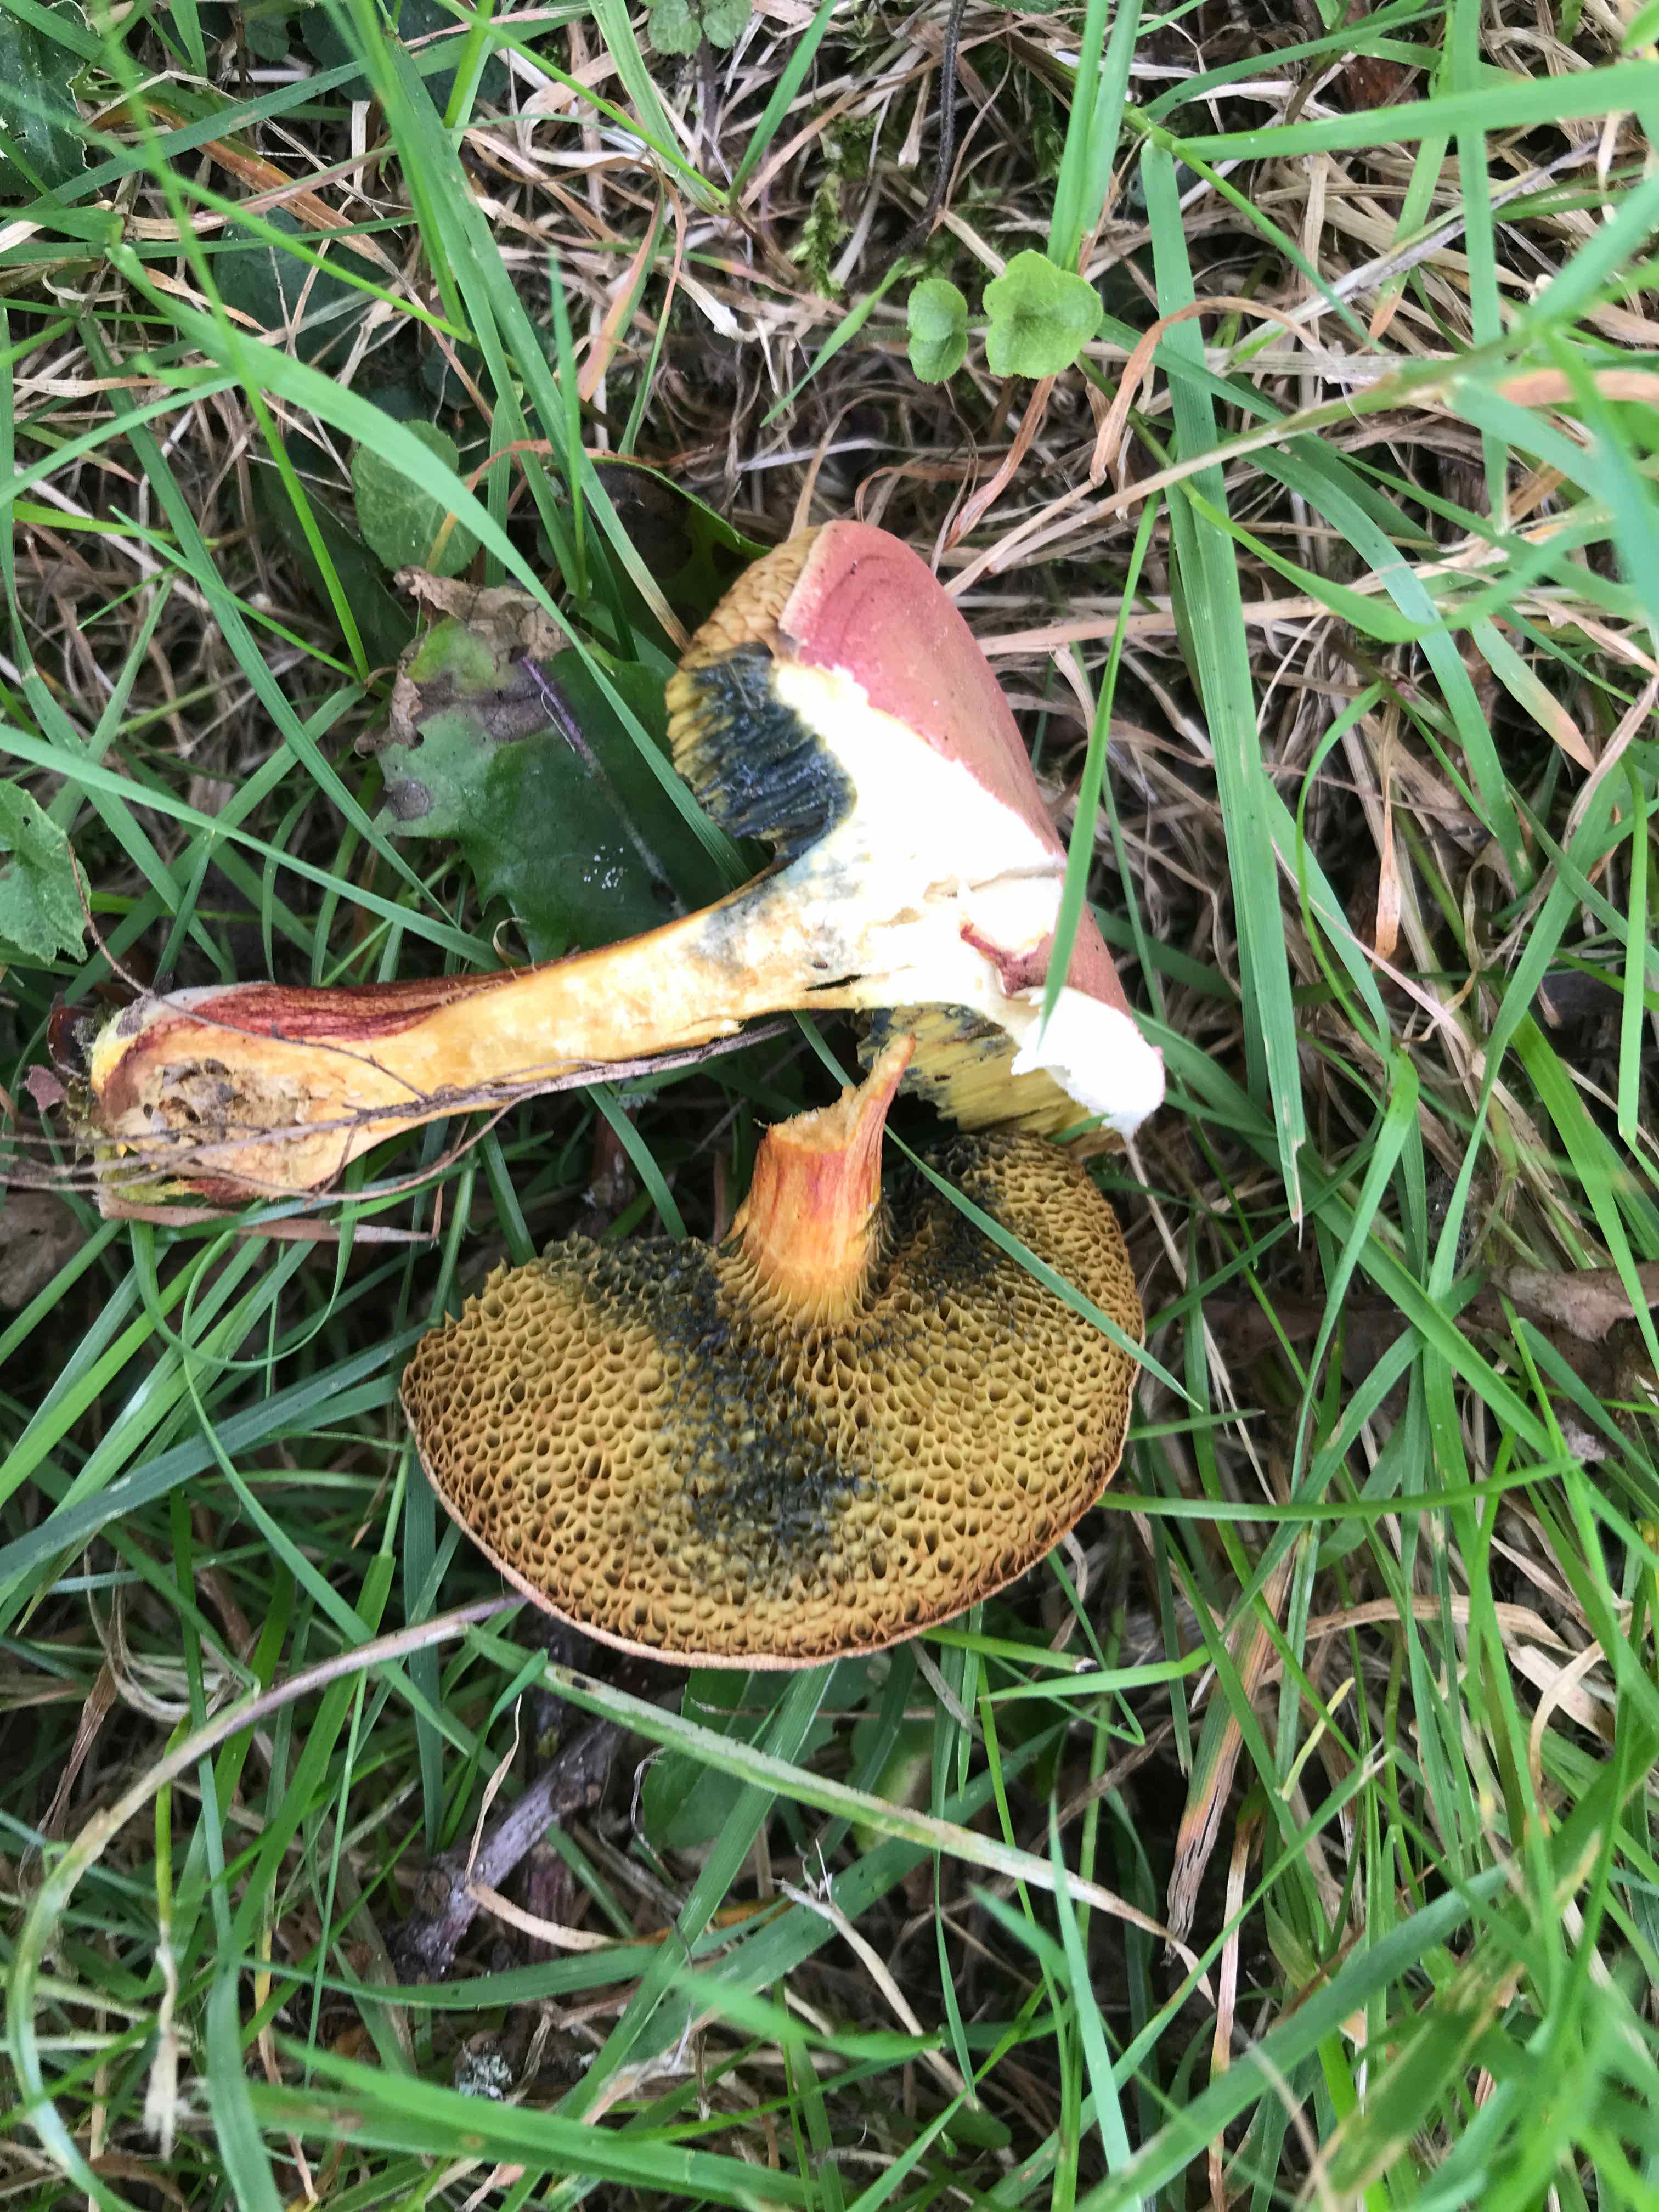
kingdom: Fungi
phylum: Basidiomycota
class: Agaricomycetes
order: Boletales
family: Boletaceae
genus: Hortiboletus
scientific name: Hortiboletus rubellus
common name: blodrød rørhat
